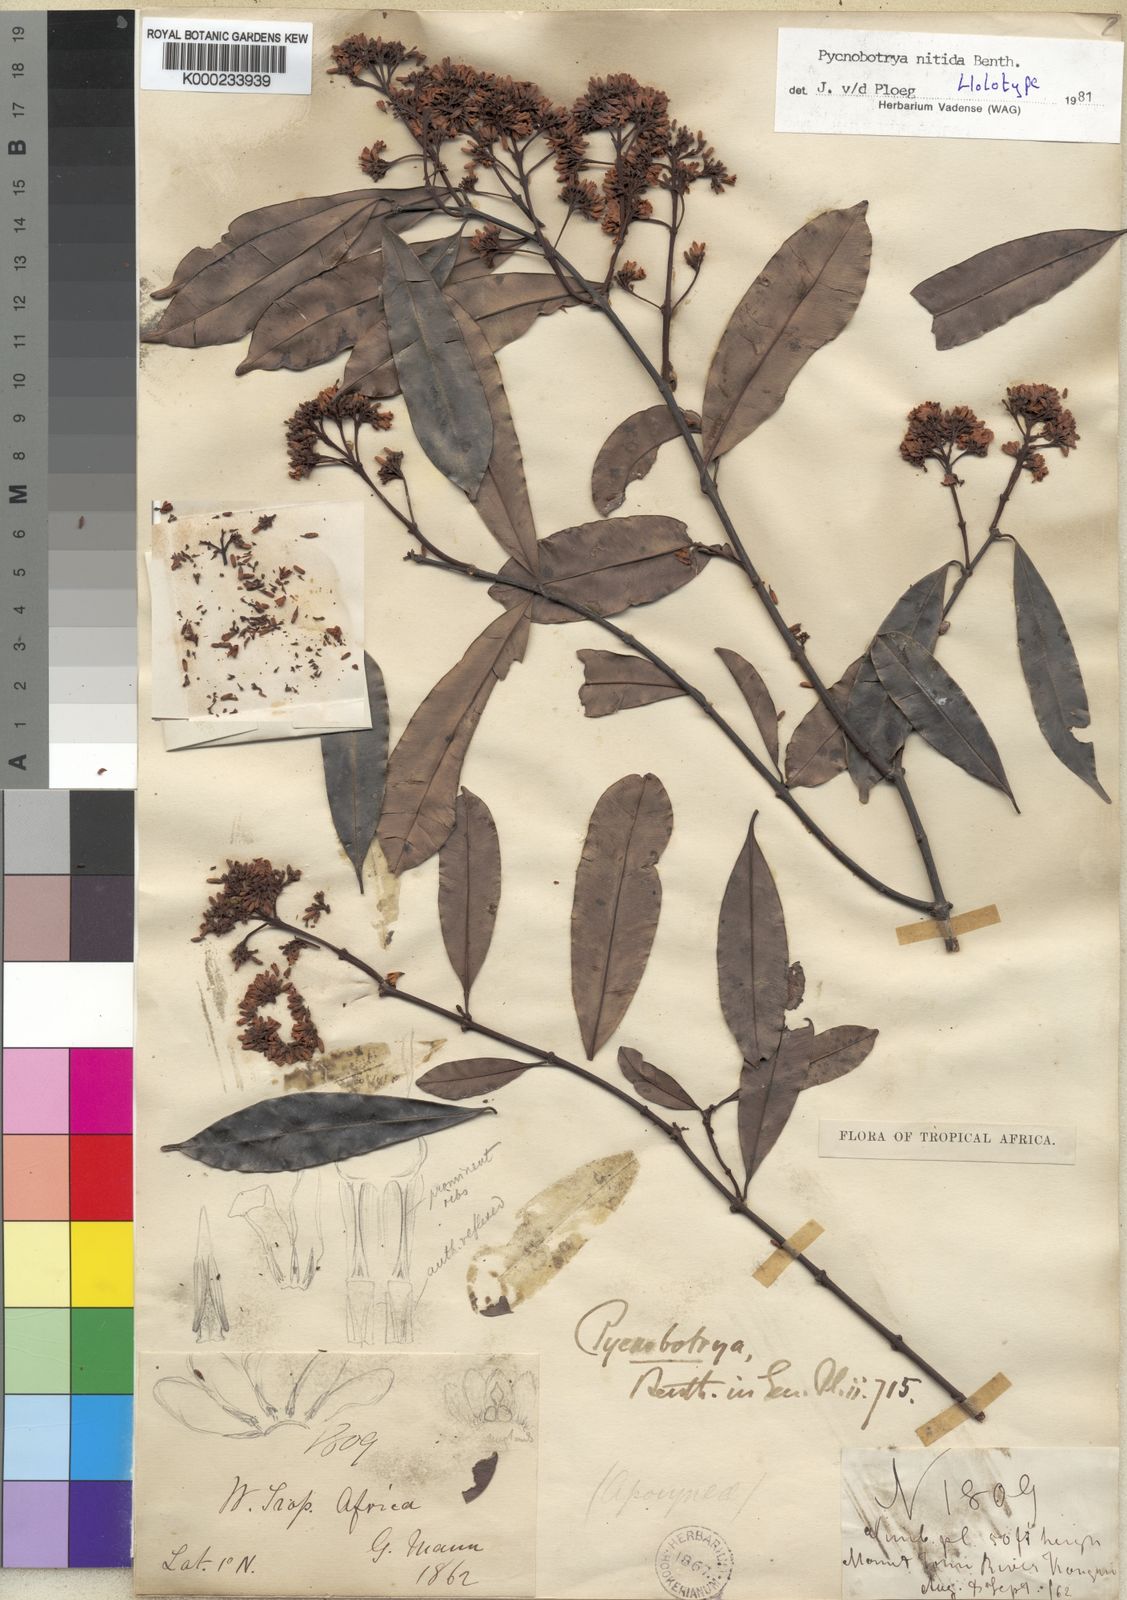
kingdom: Plantae
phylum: Tracheophyta
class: Magnoliopsida
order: Gentianales
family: Apocynaceae
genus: Pycnobotrya
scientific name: Pycnobotrya nitida
